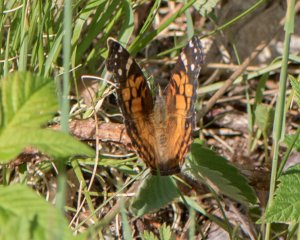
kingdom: Animalia
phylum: Arthropoda
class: Insecta
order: Lepidoptera
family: Nymphalidae
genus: Vanessa
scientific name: Vanessa virginiensis
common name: American Lady
